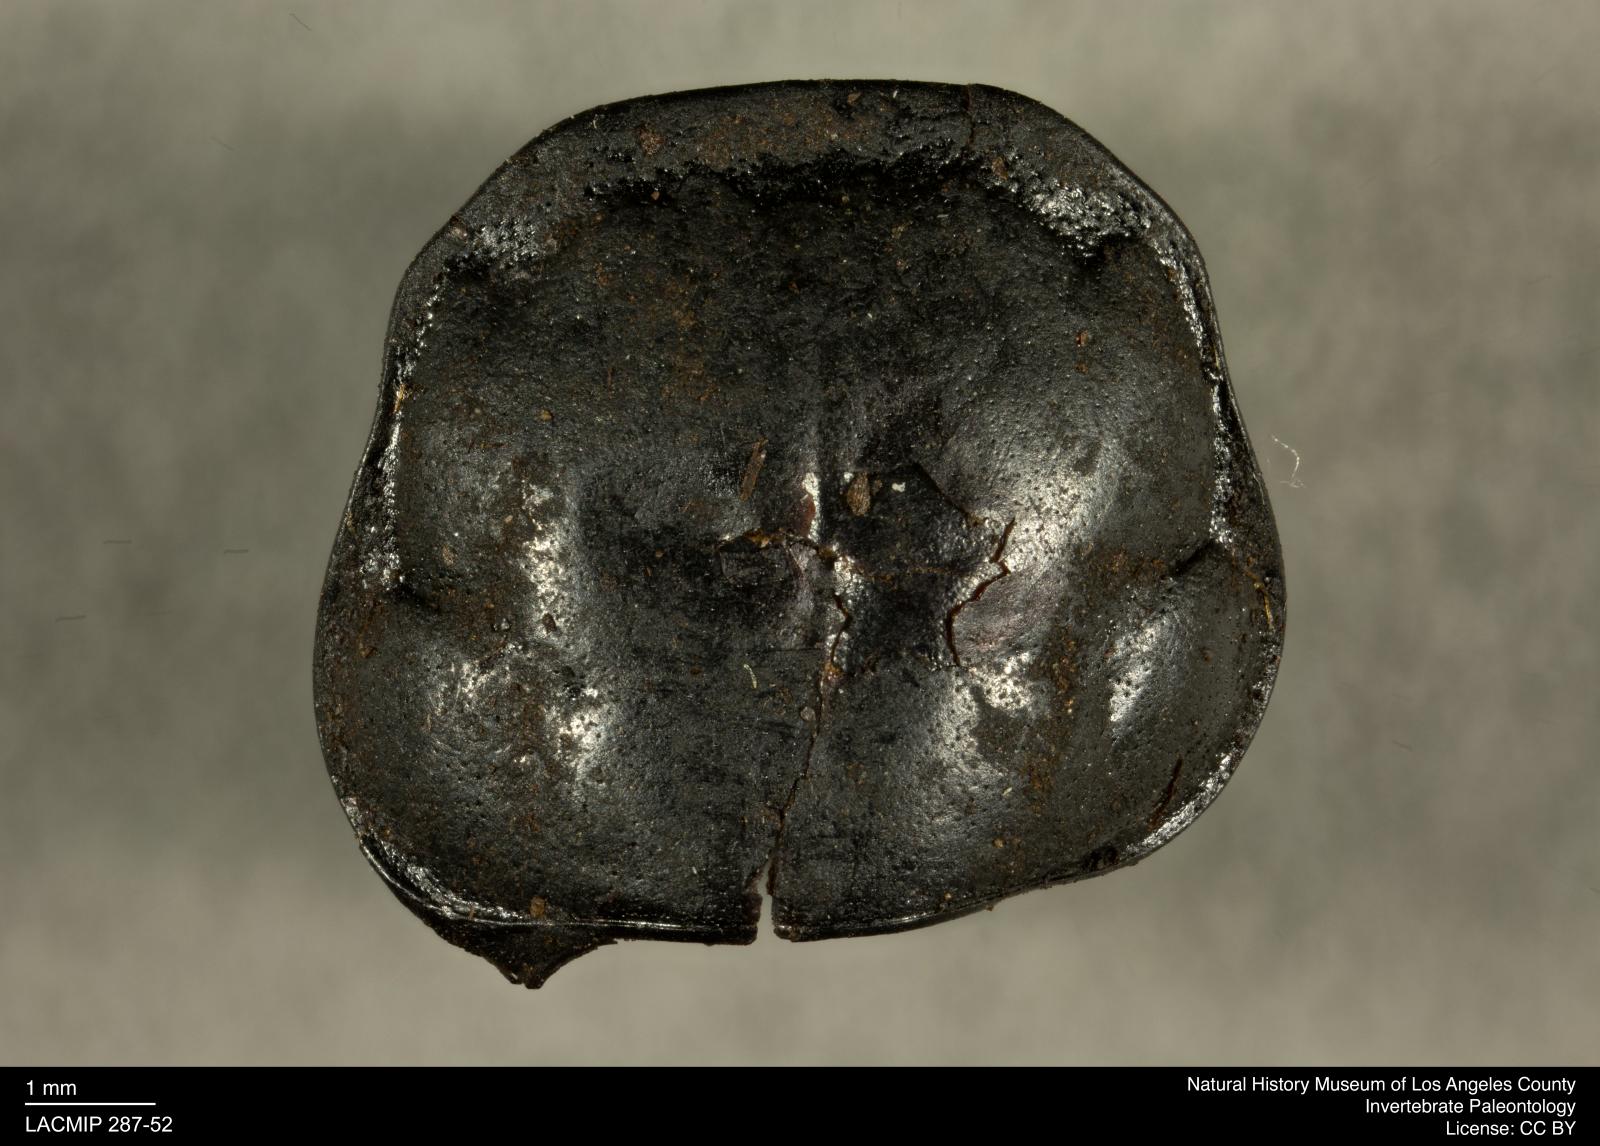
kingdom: Animalia
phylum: Arthropoda
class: Insecta
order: Coleoptera
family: Staphylinidae
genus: Nicrophorus
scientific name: Nicrophorus marginatus
